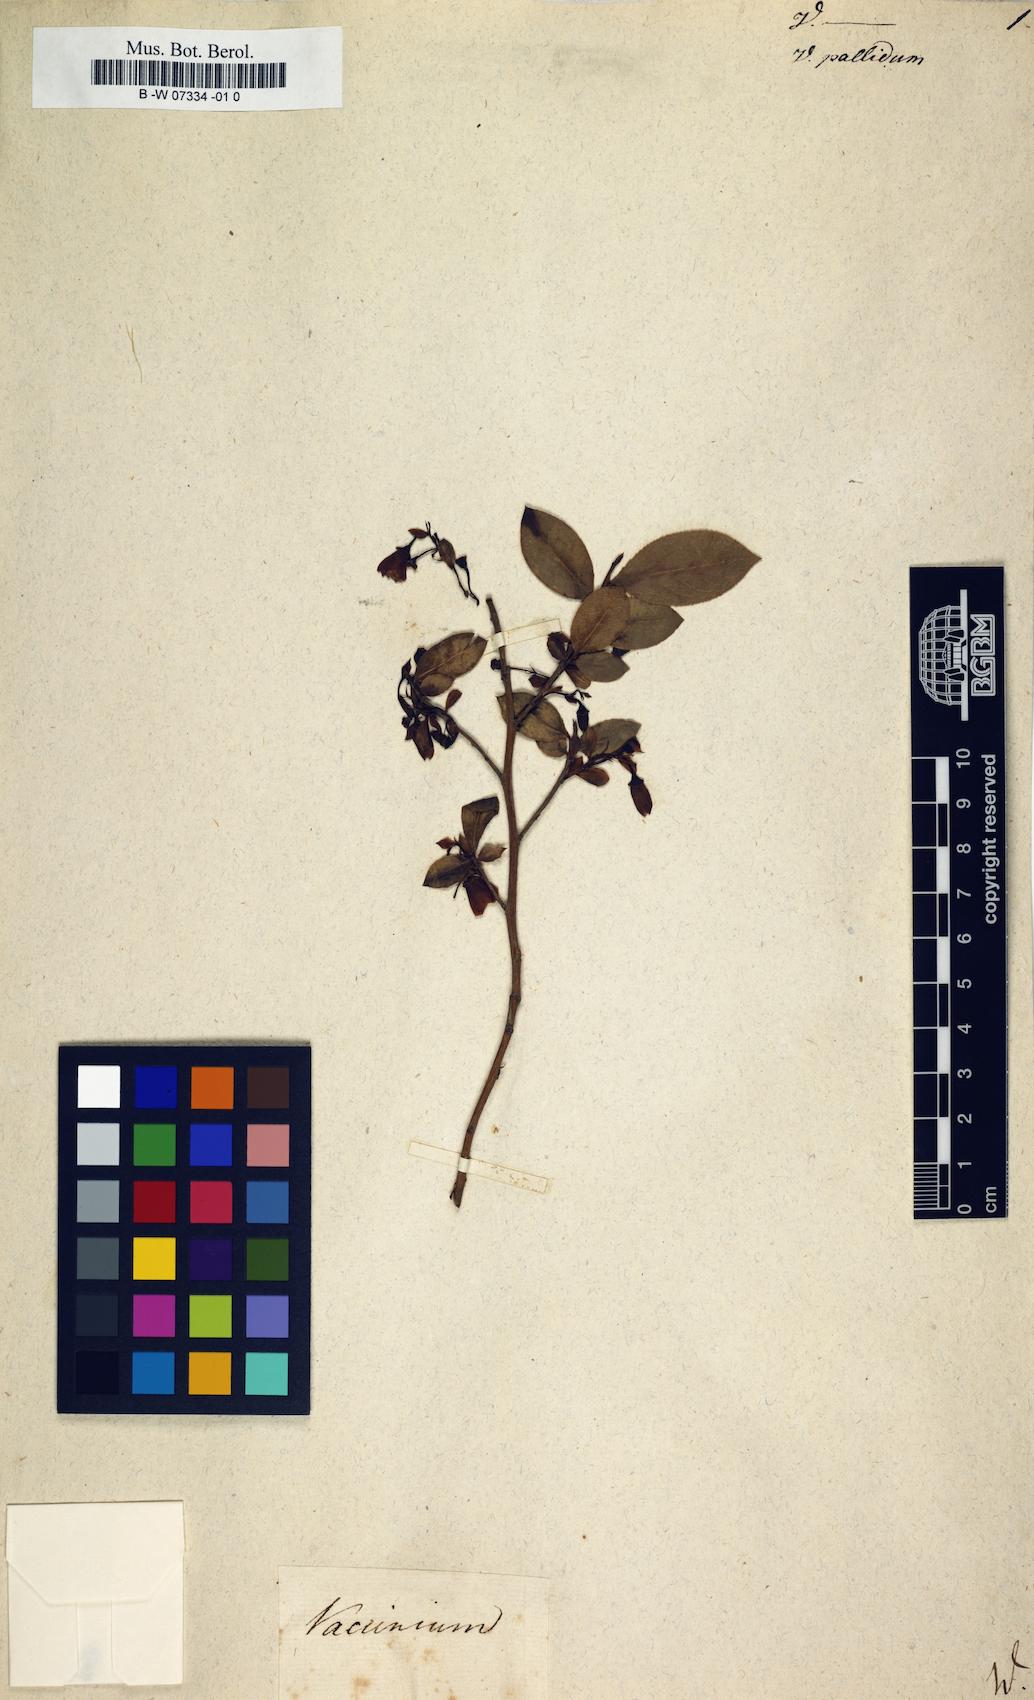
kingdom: Plantae
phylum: Tracheophyta
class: Magnoliopsida
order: Ericales
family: Ericaceae
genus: Vaccinium
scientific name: Vaccinium pallidum
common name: Blue ridge blueberry
